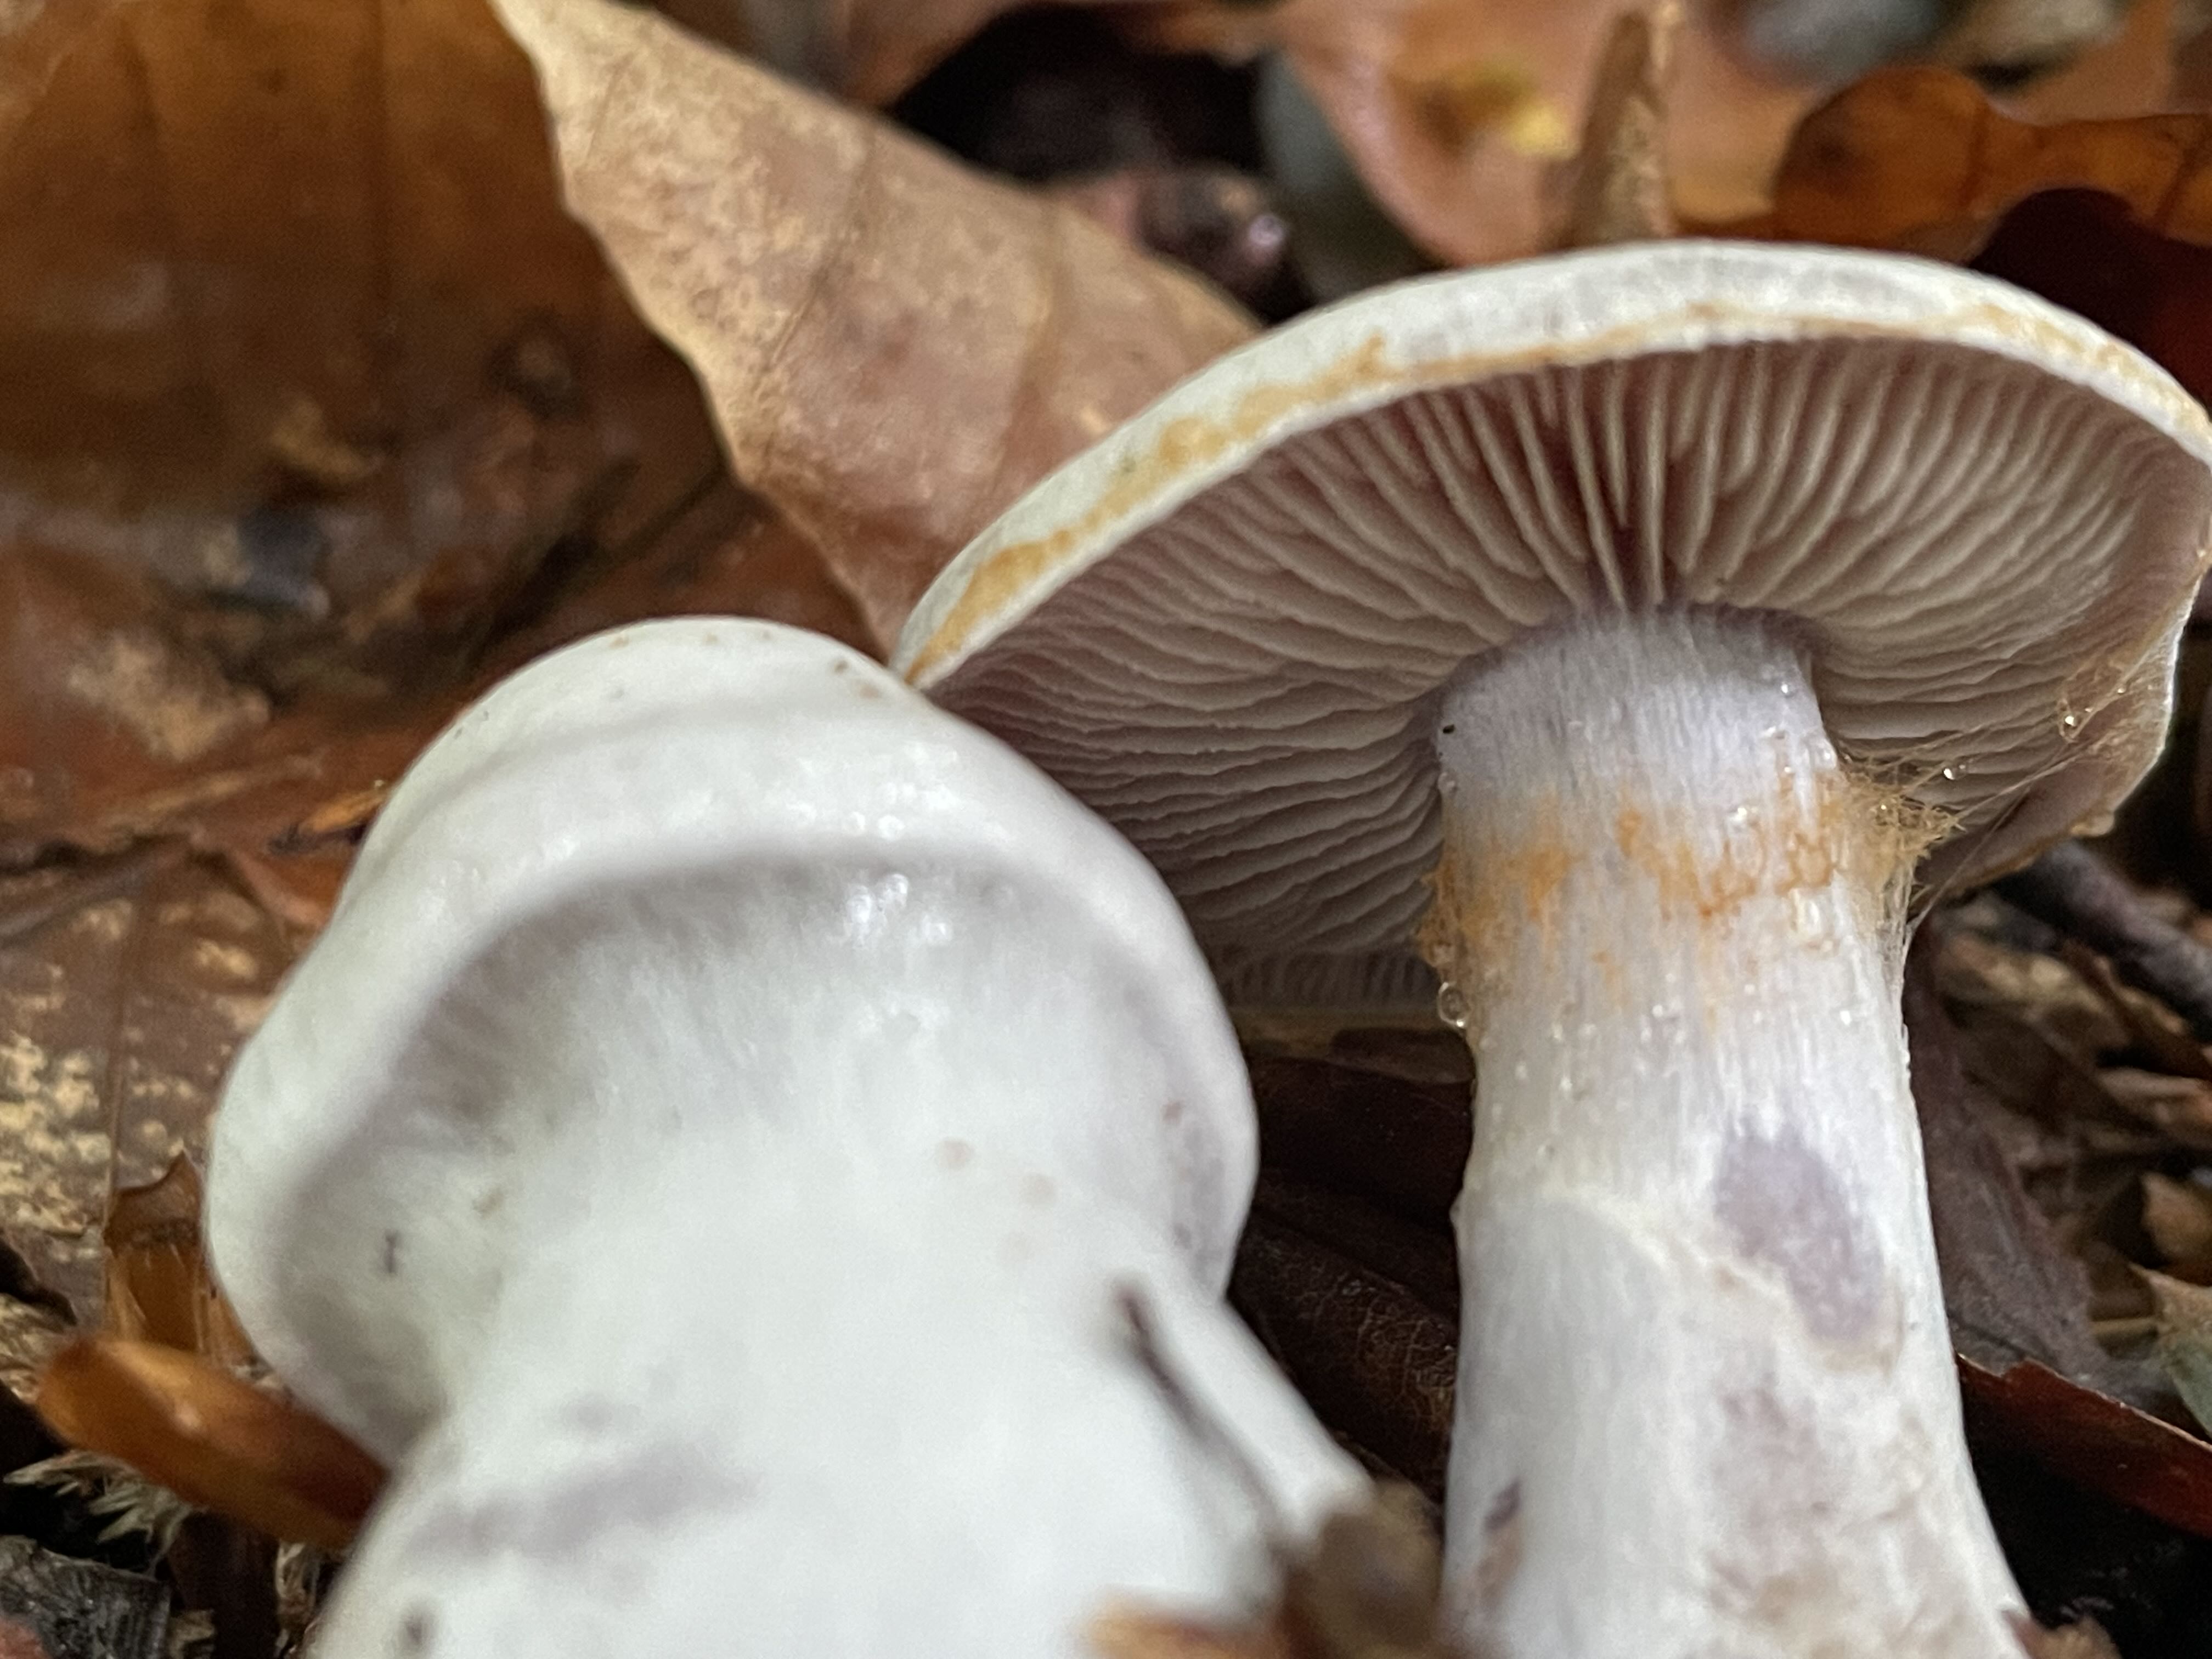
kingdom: Fungi
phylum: Basidiomycota
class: Agaricomycetes
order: Agaricales
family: Cortinariaceae
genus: Cortinarius
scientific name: Cortinarius alboviolaceus
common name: lysviolet slørhat
